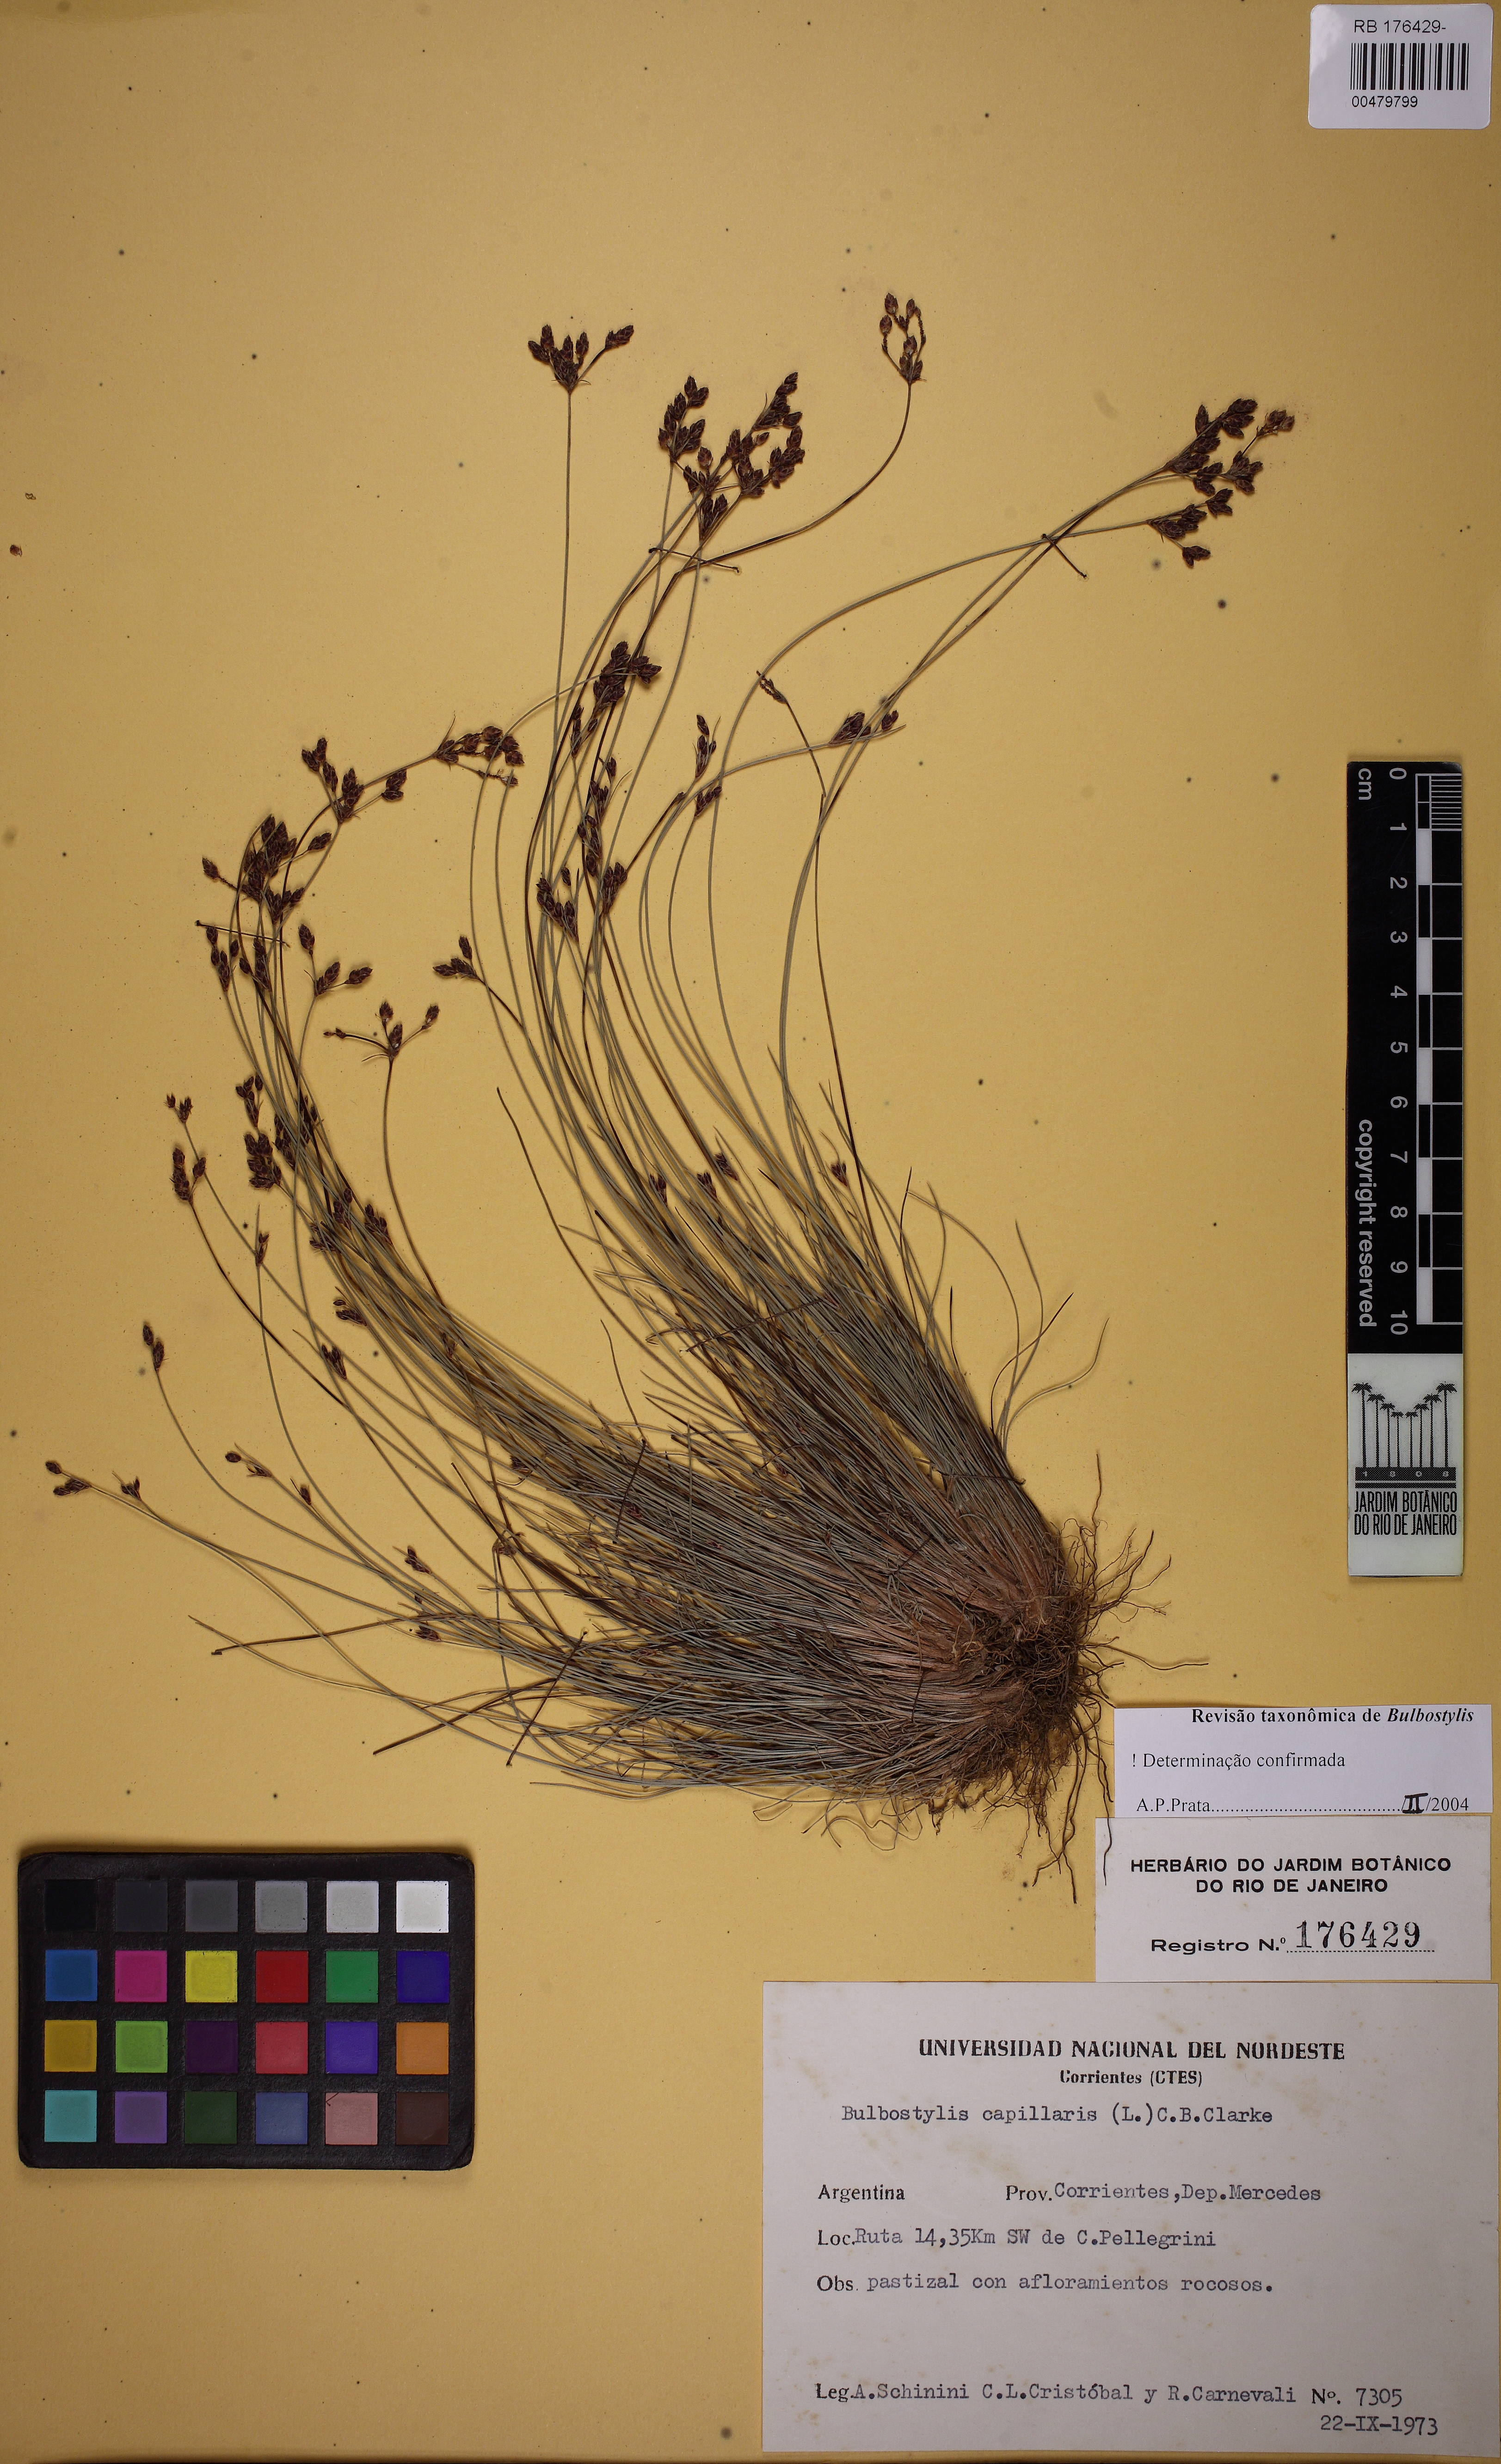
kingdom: Plantae
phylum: Tracheophyta
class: Liliopsida
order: Poales
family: Cyperaceae
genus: Bulbostylis
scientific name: Bulbostylis capillaris
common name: Densetuft hairsedge
